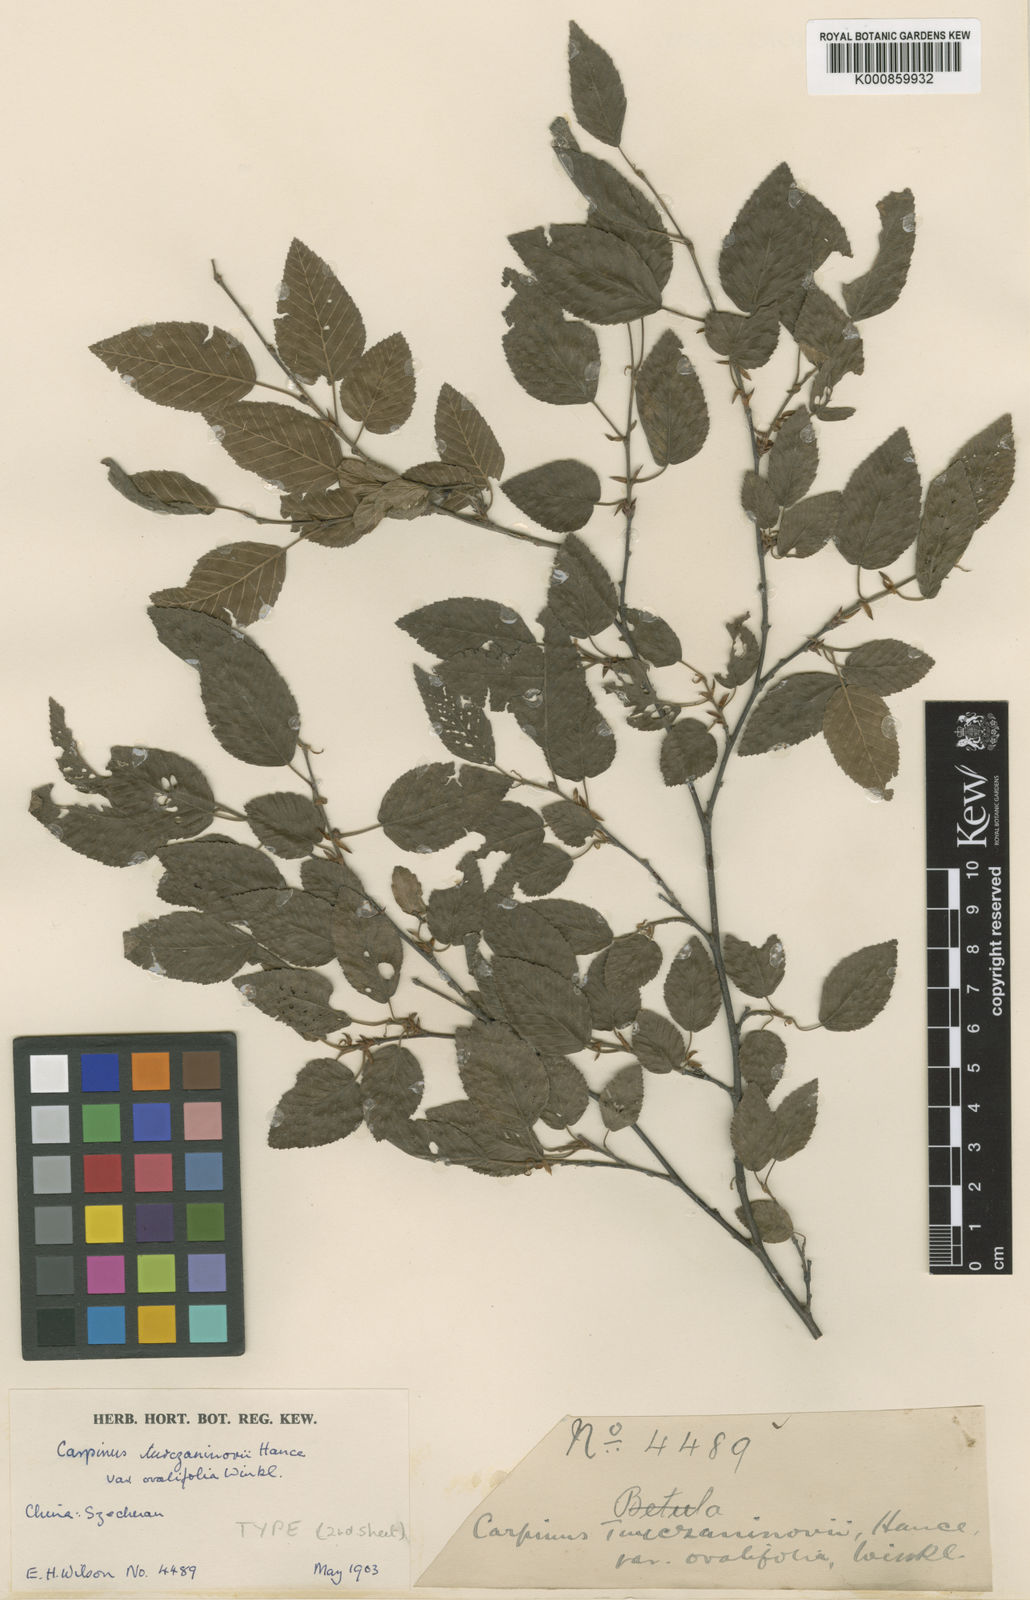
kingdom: Plantae
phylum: Tracheophyta
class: Magnoliopsida
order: Fagales
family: Betulaceae
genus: Carpinus
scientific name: Carpinus
